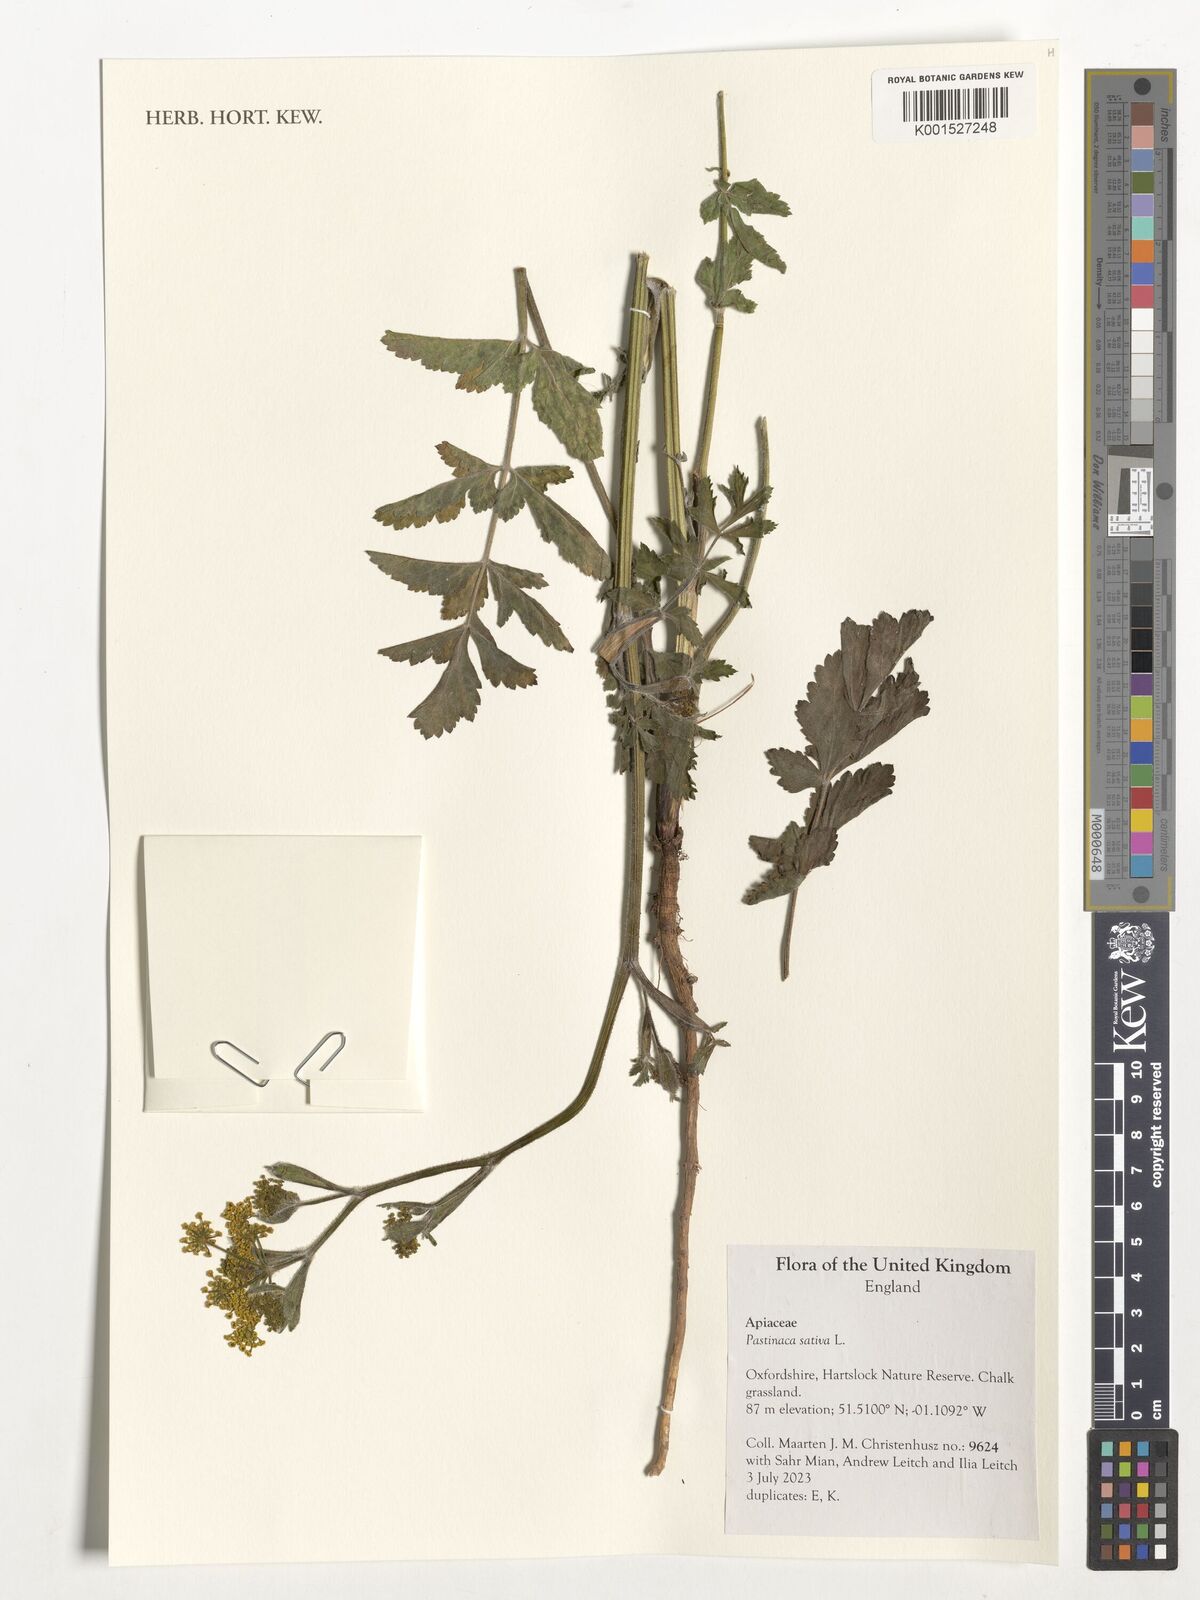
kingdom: Plantae
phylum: Tracheophyta
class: Magnoliopsida
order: Apiales
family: Apiaceae
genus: Pastinaca
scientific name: Pastinaca sativa
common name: Wild parsnip
